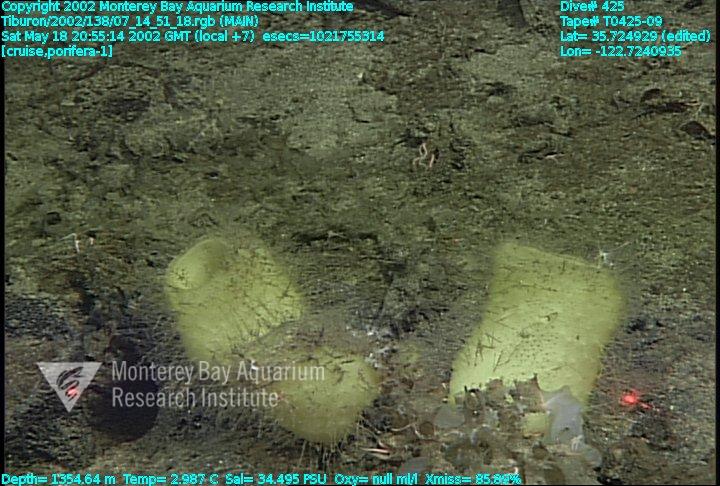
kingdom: Animalia
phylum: Porifera
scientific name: Porifera
